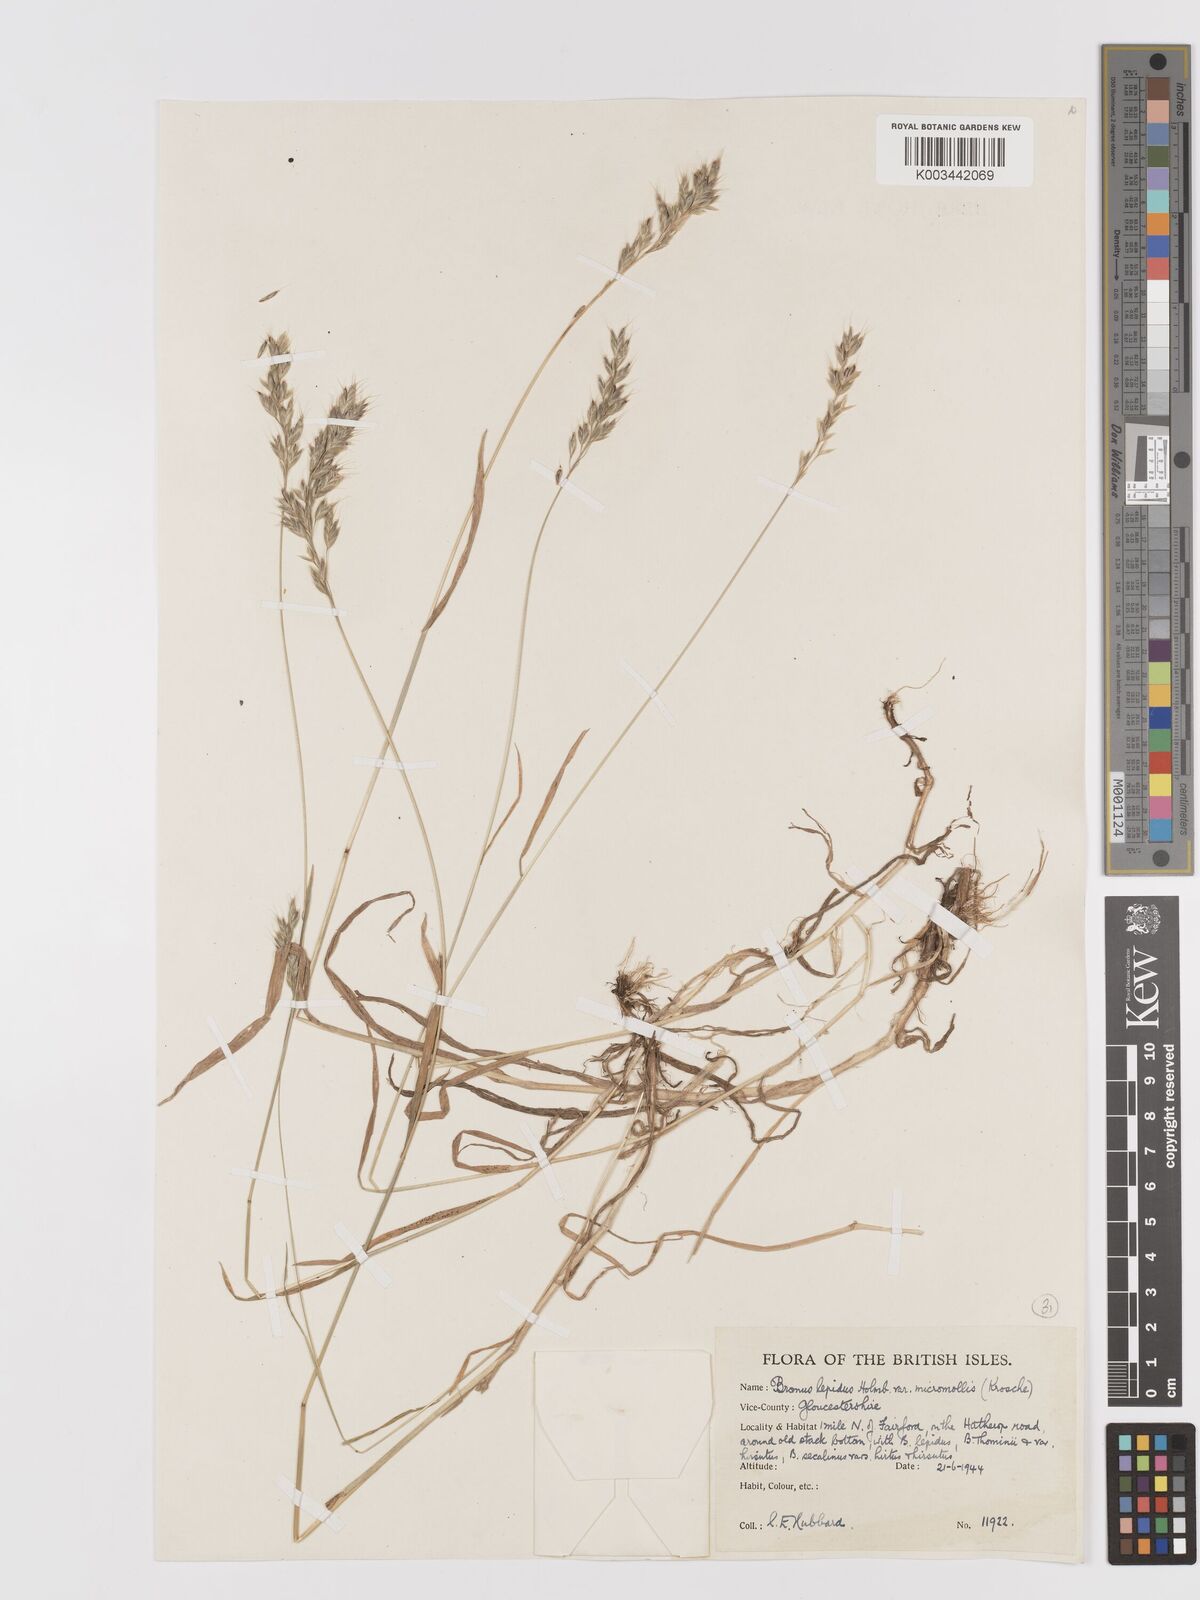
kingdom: Plantae
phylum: Tracheophyta
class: Liliopsida
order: Poales
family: Poaceae
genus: Bromus
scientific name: Bromus lepidus
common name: Slender soft-brome
